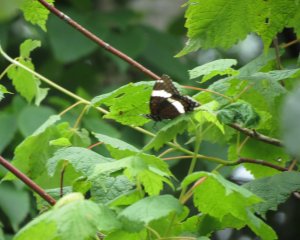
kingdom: Animalia
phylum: Arthropoda
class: Insecta
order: Lepidoptera
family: Nymphalidae
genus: Limenitis
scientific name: Limenitis arthemis
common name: Red-spotted Admiral
